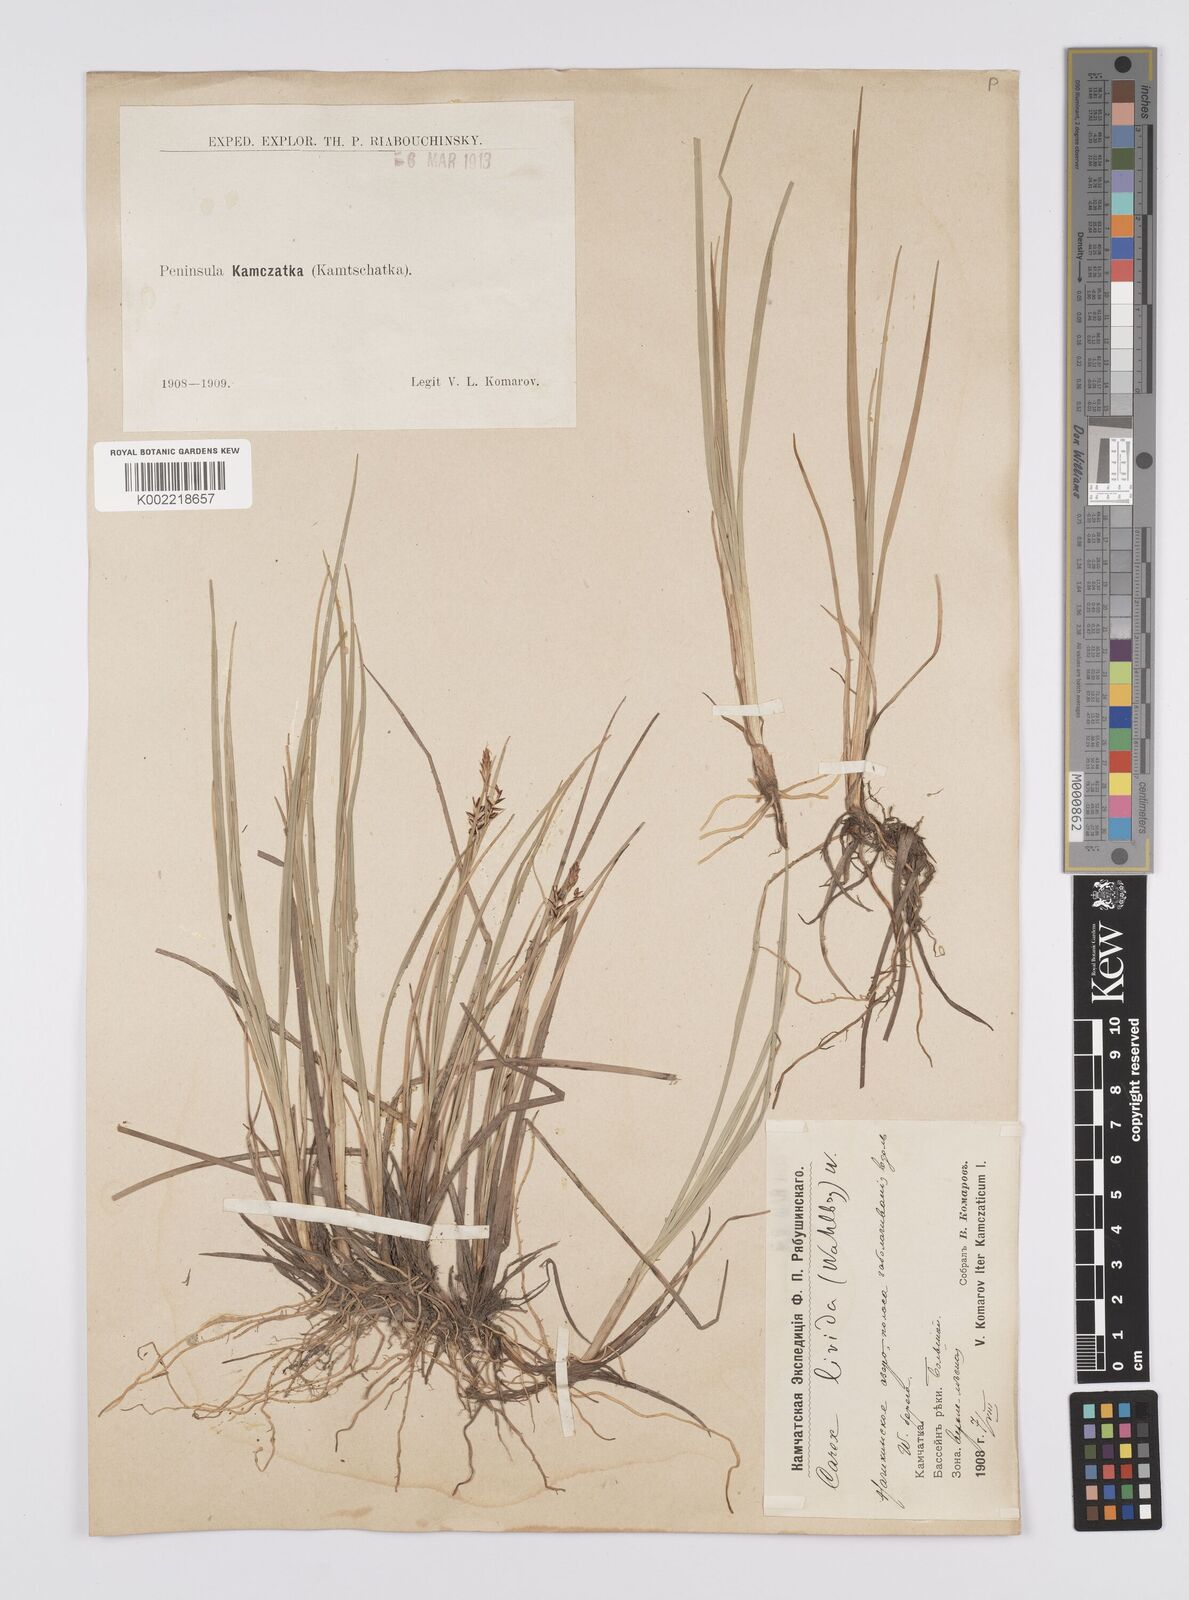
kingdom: Plantae
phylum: Tracheophyta
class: Liliopsida
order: Poales
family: Cyperaceae
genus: Carex
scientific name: Carex livida
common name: Livid sedge
